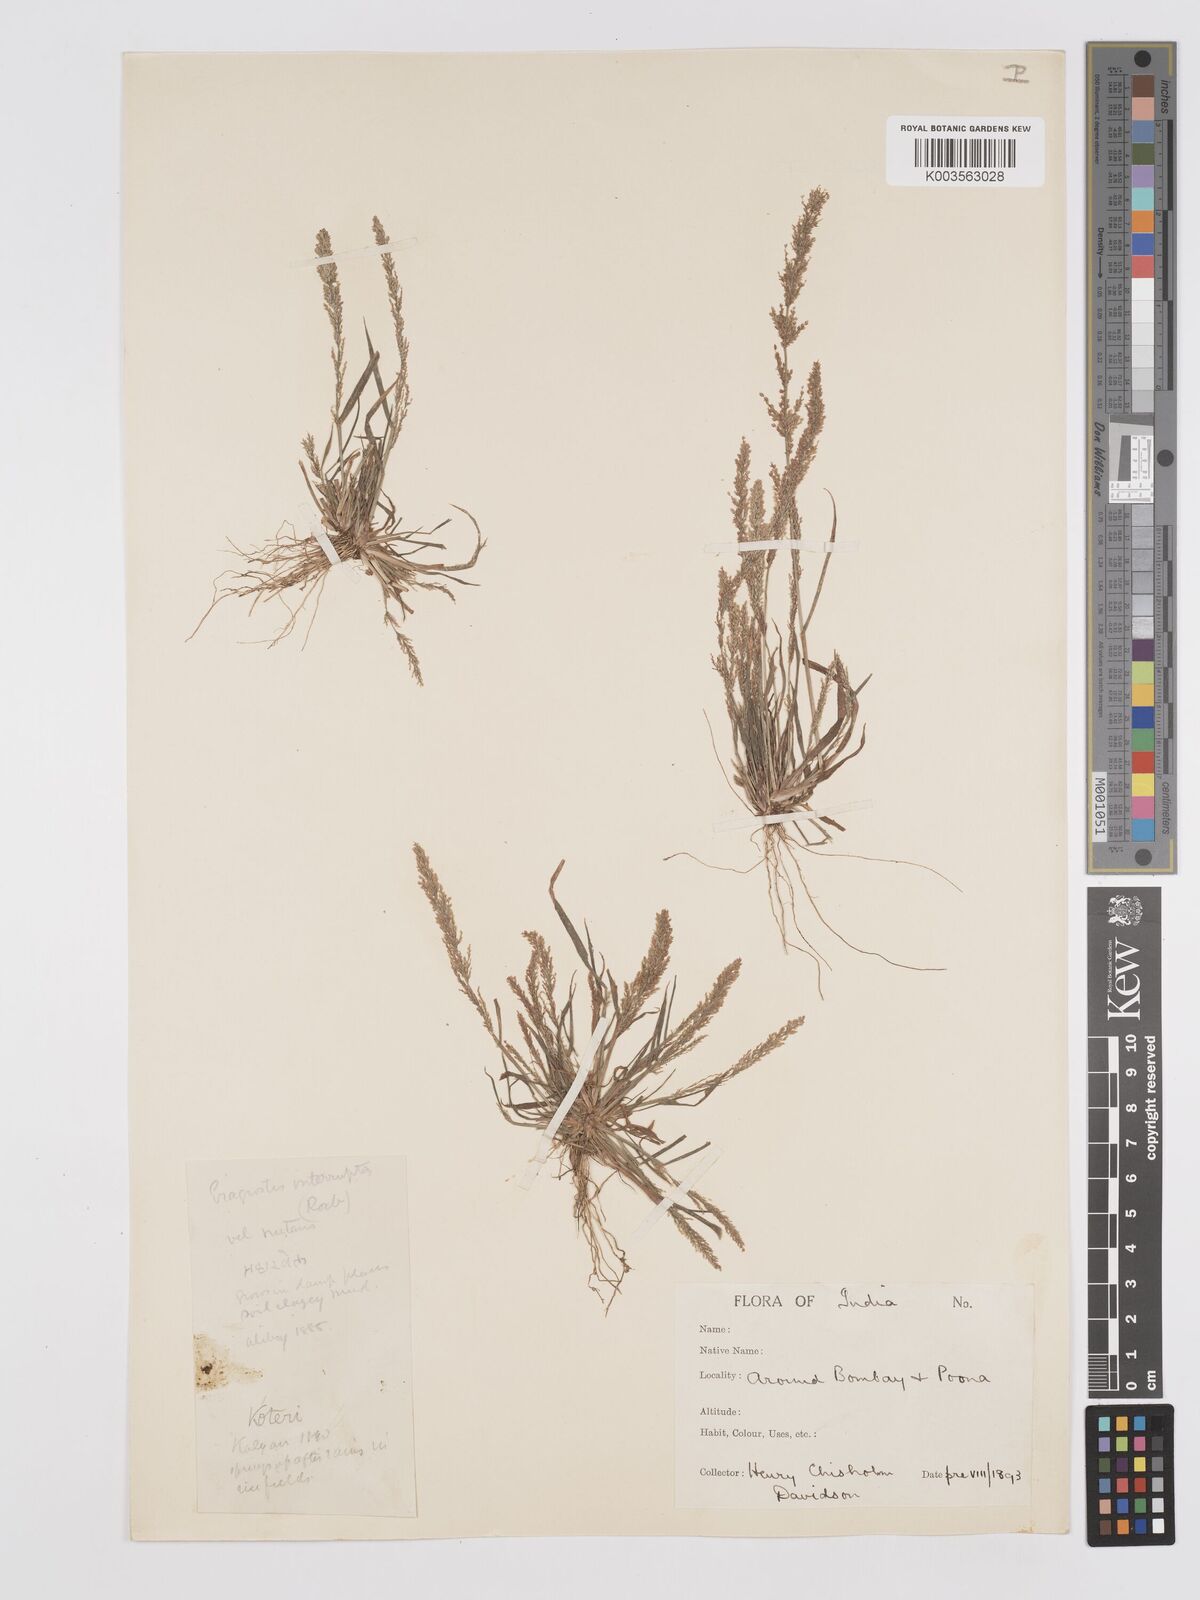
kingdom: Plantae
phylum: Tracheophyta
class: Liliopsida
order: Poales
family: Poaceae
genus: Eragrostis
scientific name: Eragrostis japonica
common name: Pond lovegrass
